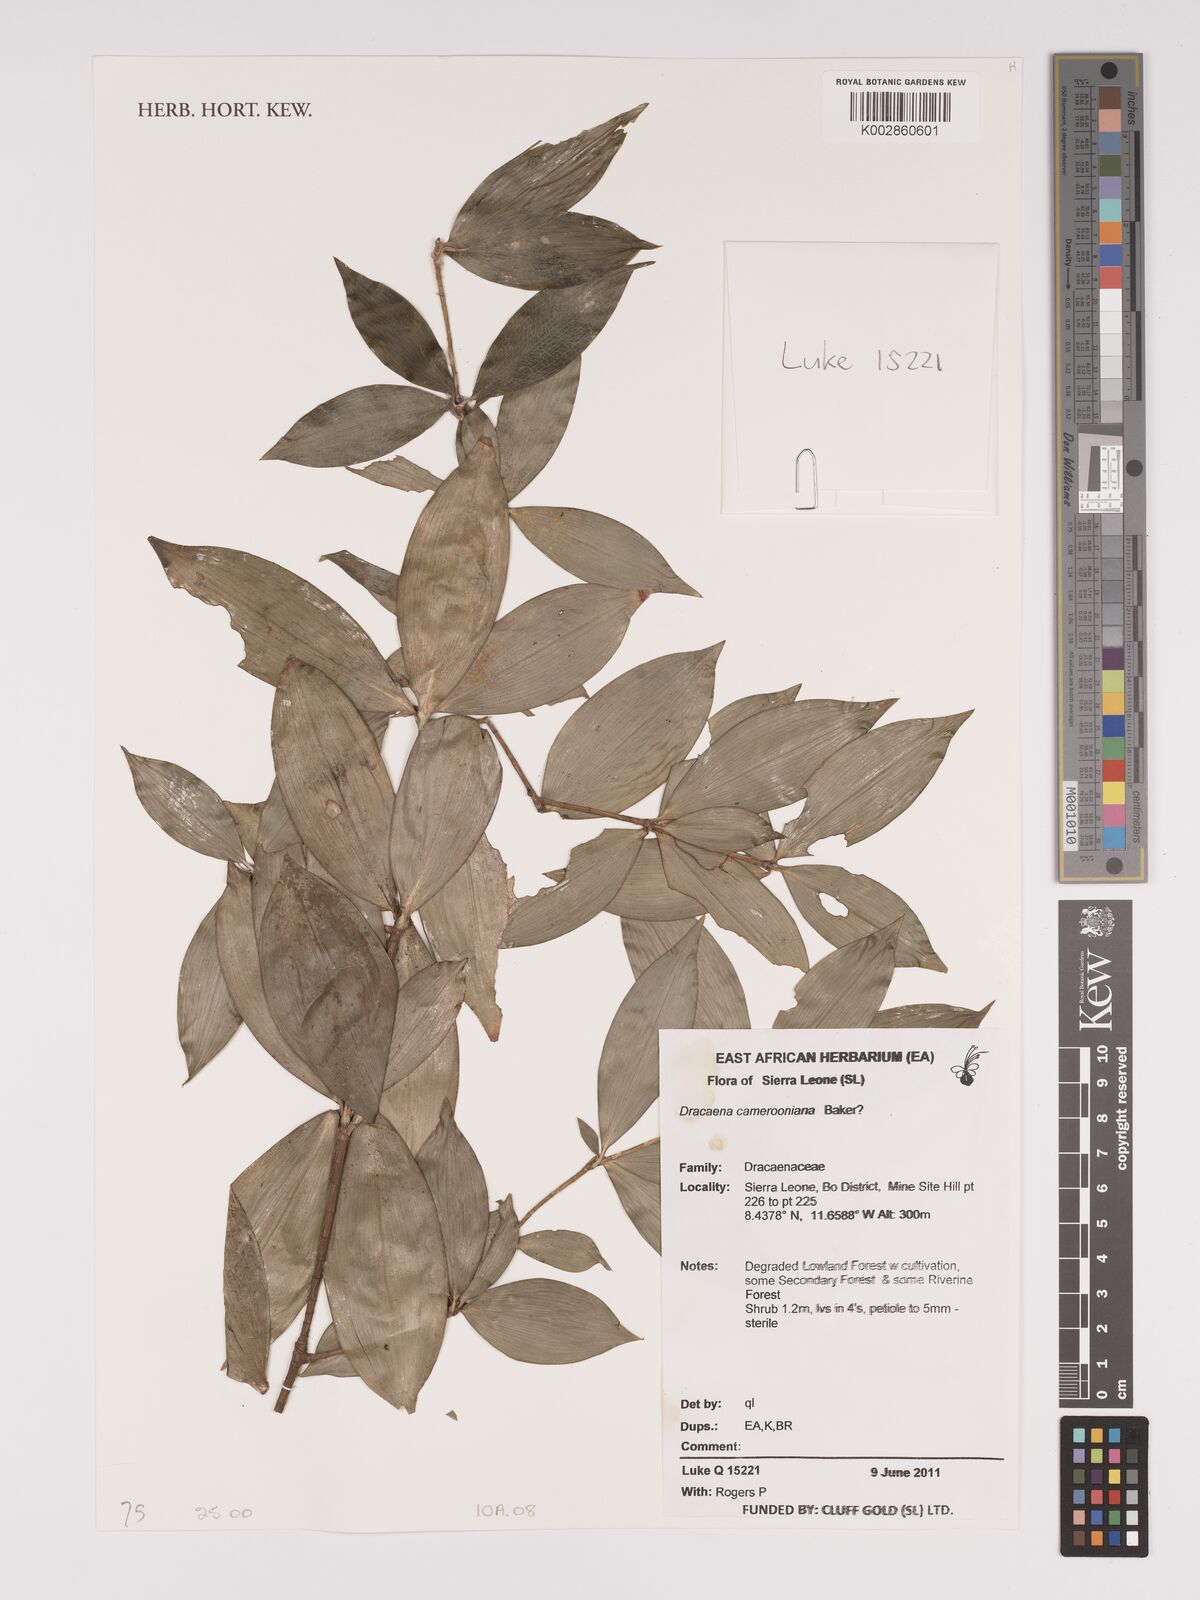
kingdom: Plantae
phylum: Tracheophyta
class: Liliopsida
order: Asparagales
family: Asparagaceae
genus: Dracaena
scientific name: Dracaena camerooniana
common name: Dragon tree
